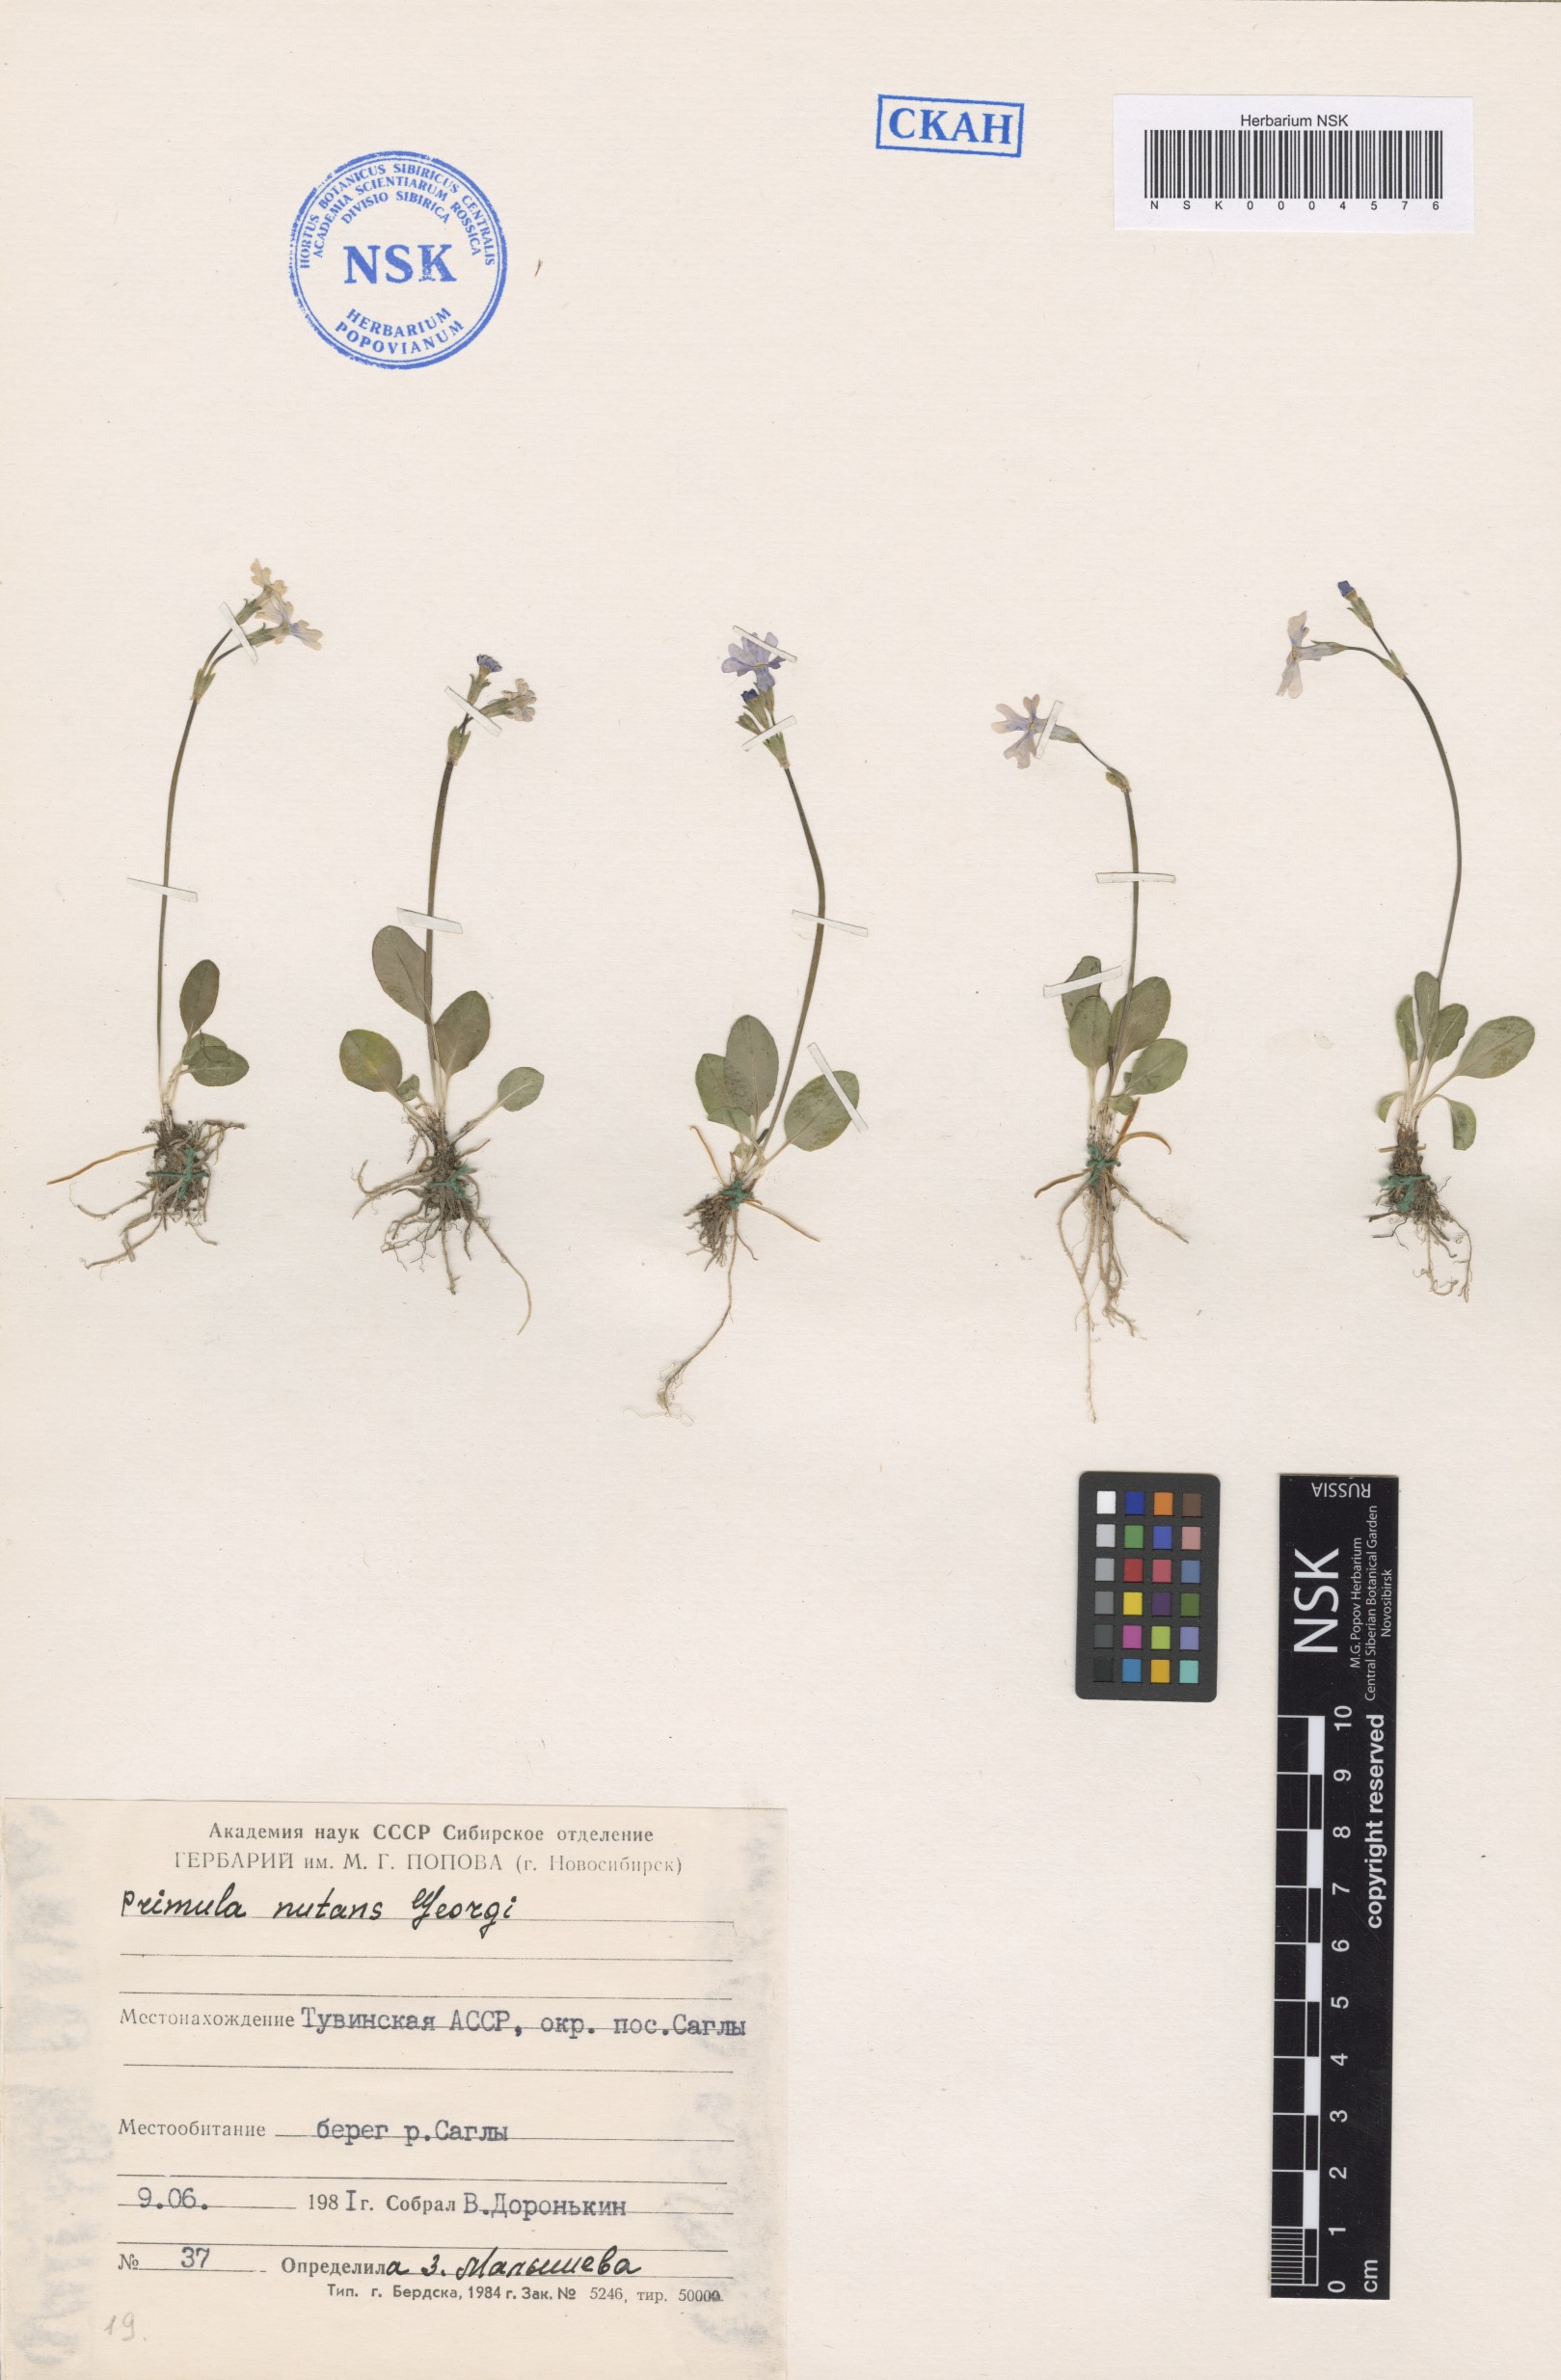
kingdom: Plantae
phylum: Tracheophyta
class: Magnoliopsida
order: Ericales
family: Primulaceae
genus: Primula
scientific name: Primula nutans
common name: Siberian primrose
